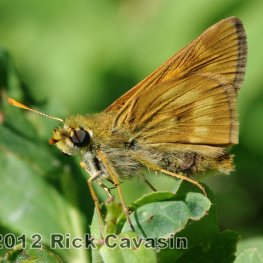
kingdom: Animalia
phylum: Arthropoda
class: Insecta
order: Lepidoptera
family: Hesperiidae
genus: Polites
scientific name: Polites
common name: Long Dash Skipper
